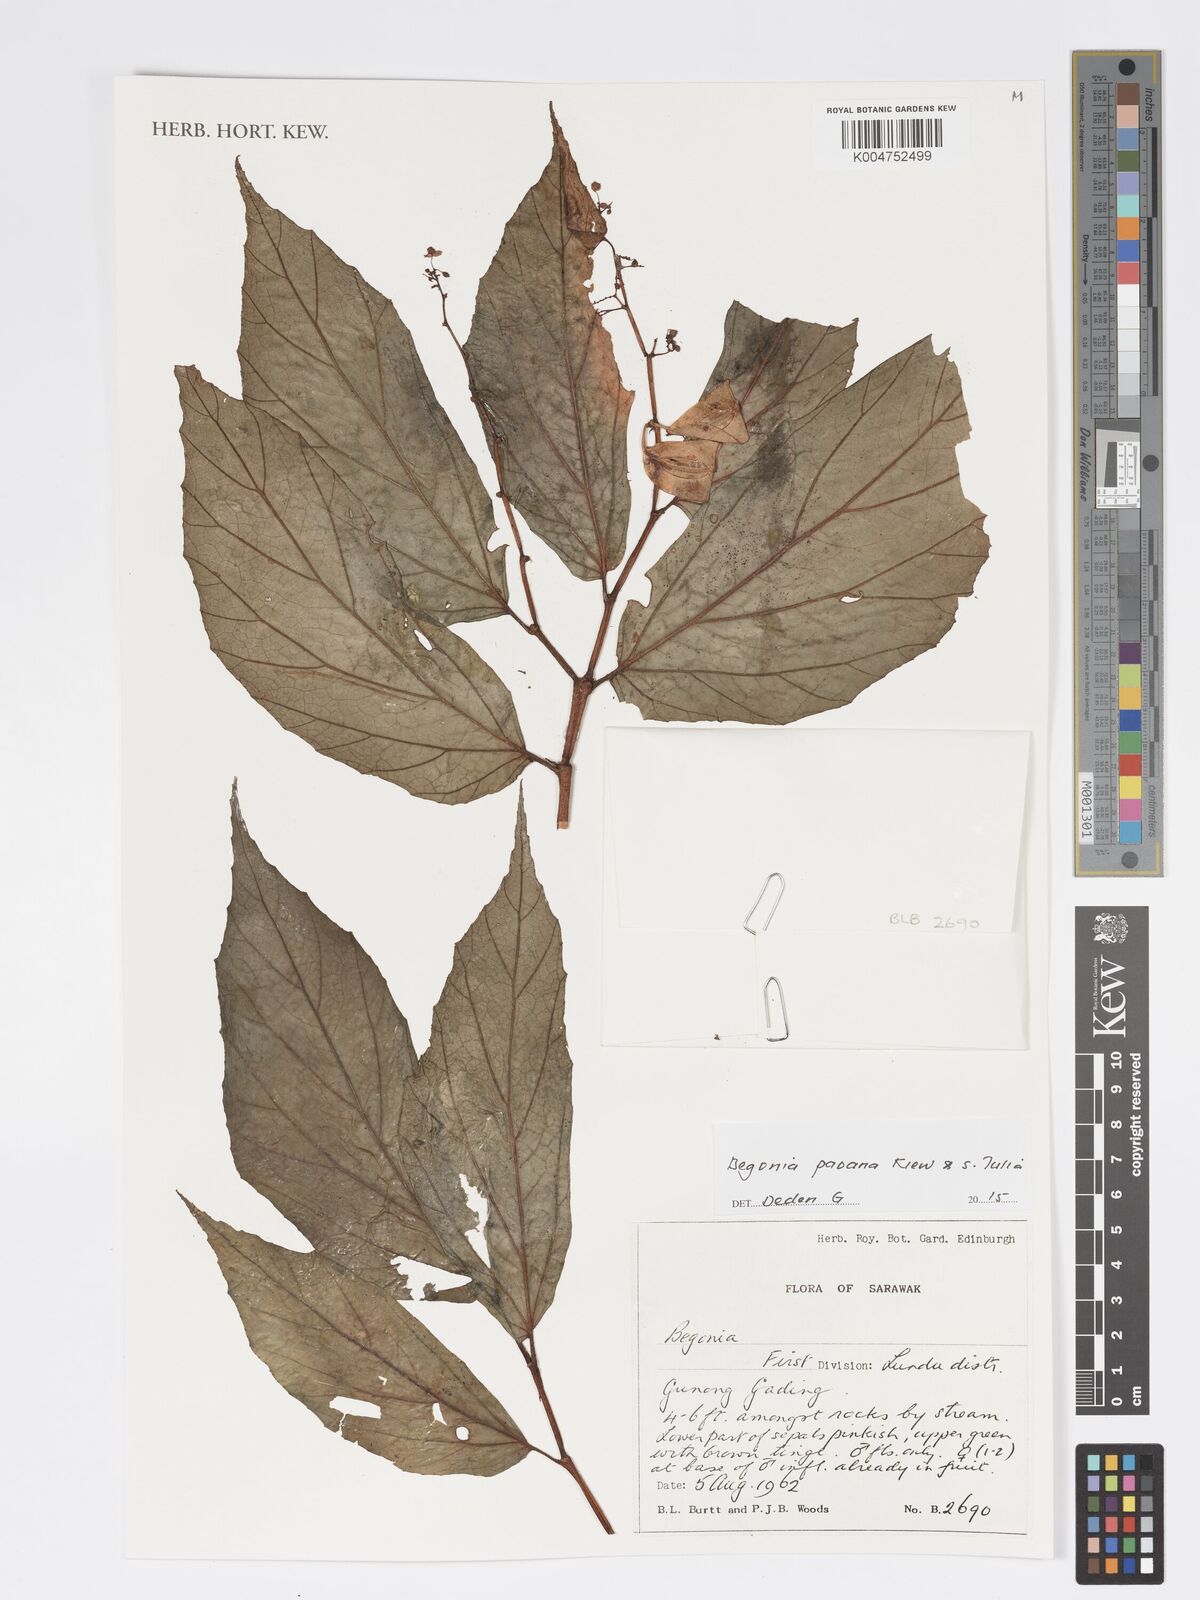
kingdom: Plantae
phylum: Tracheophyta
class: Magnoliopsida
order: Cucurbitales
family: Begoniaceae
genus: Begonia
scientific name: Begonia paoana
